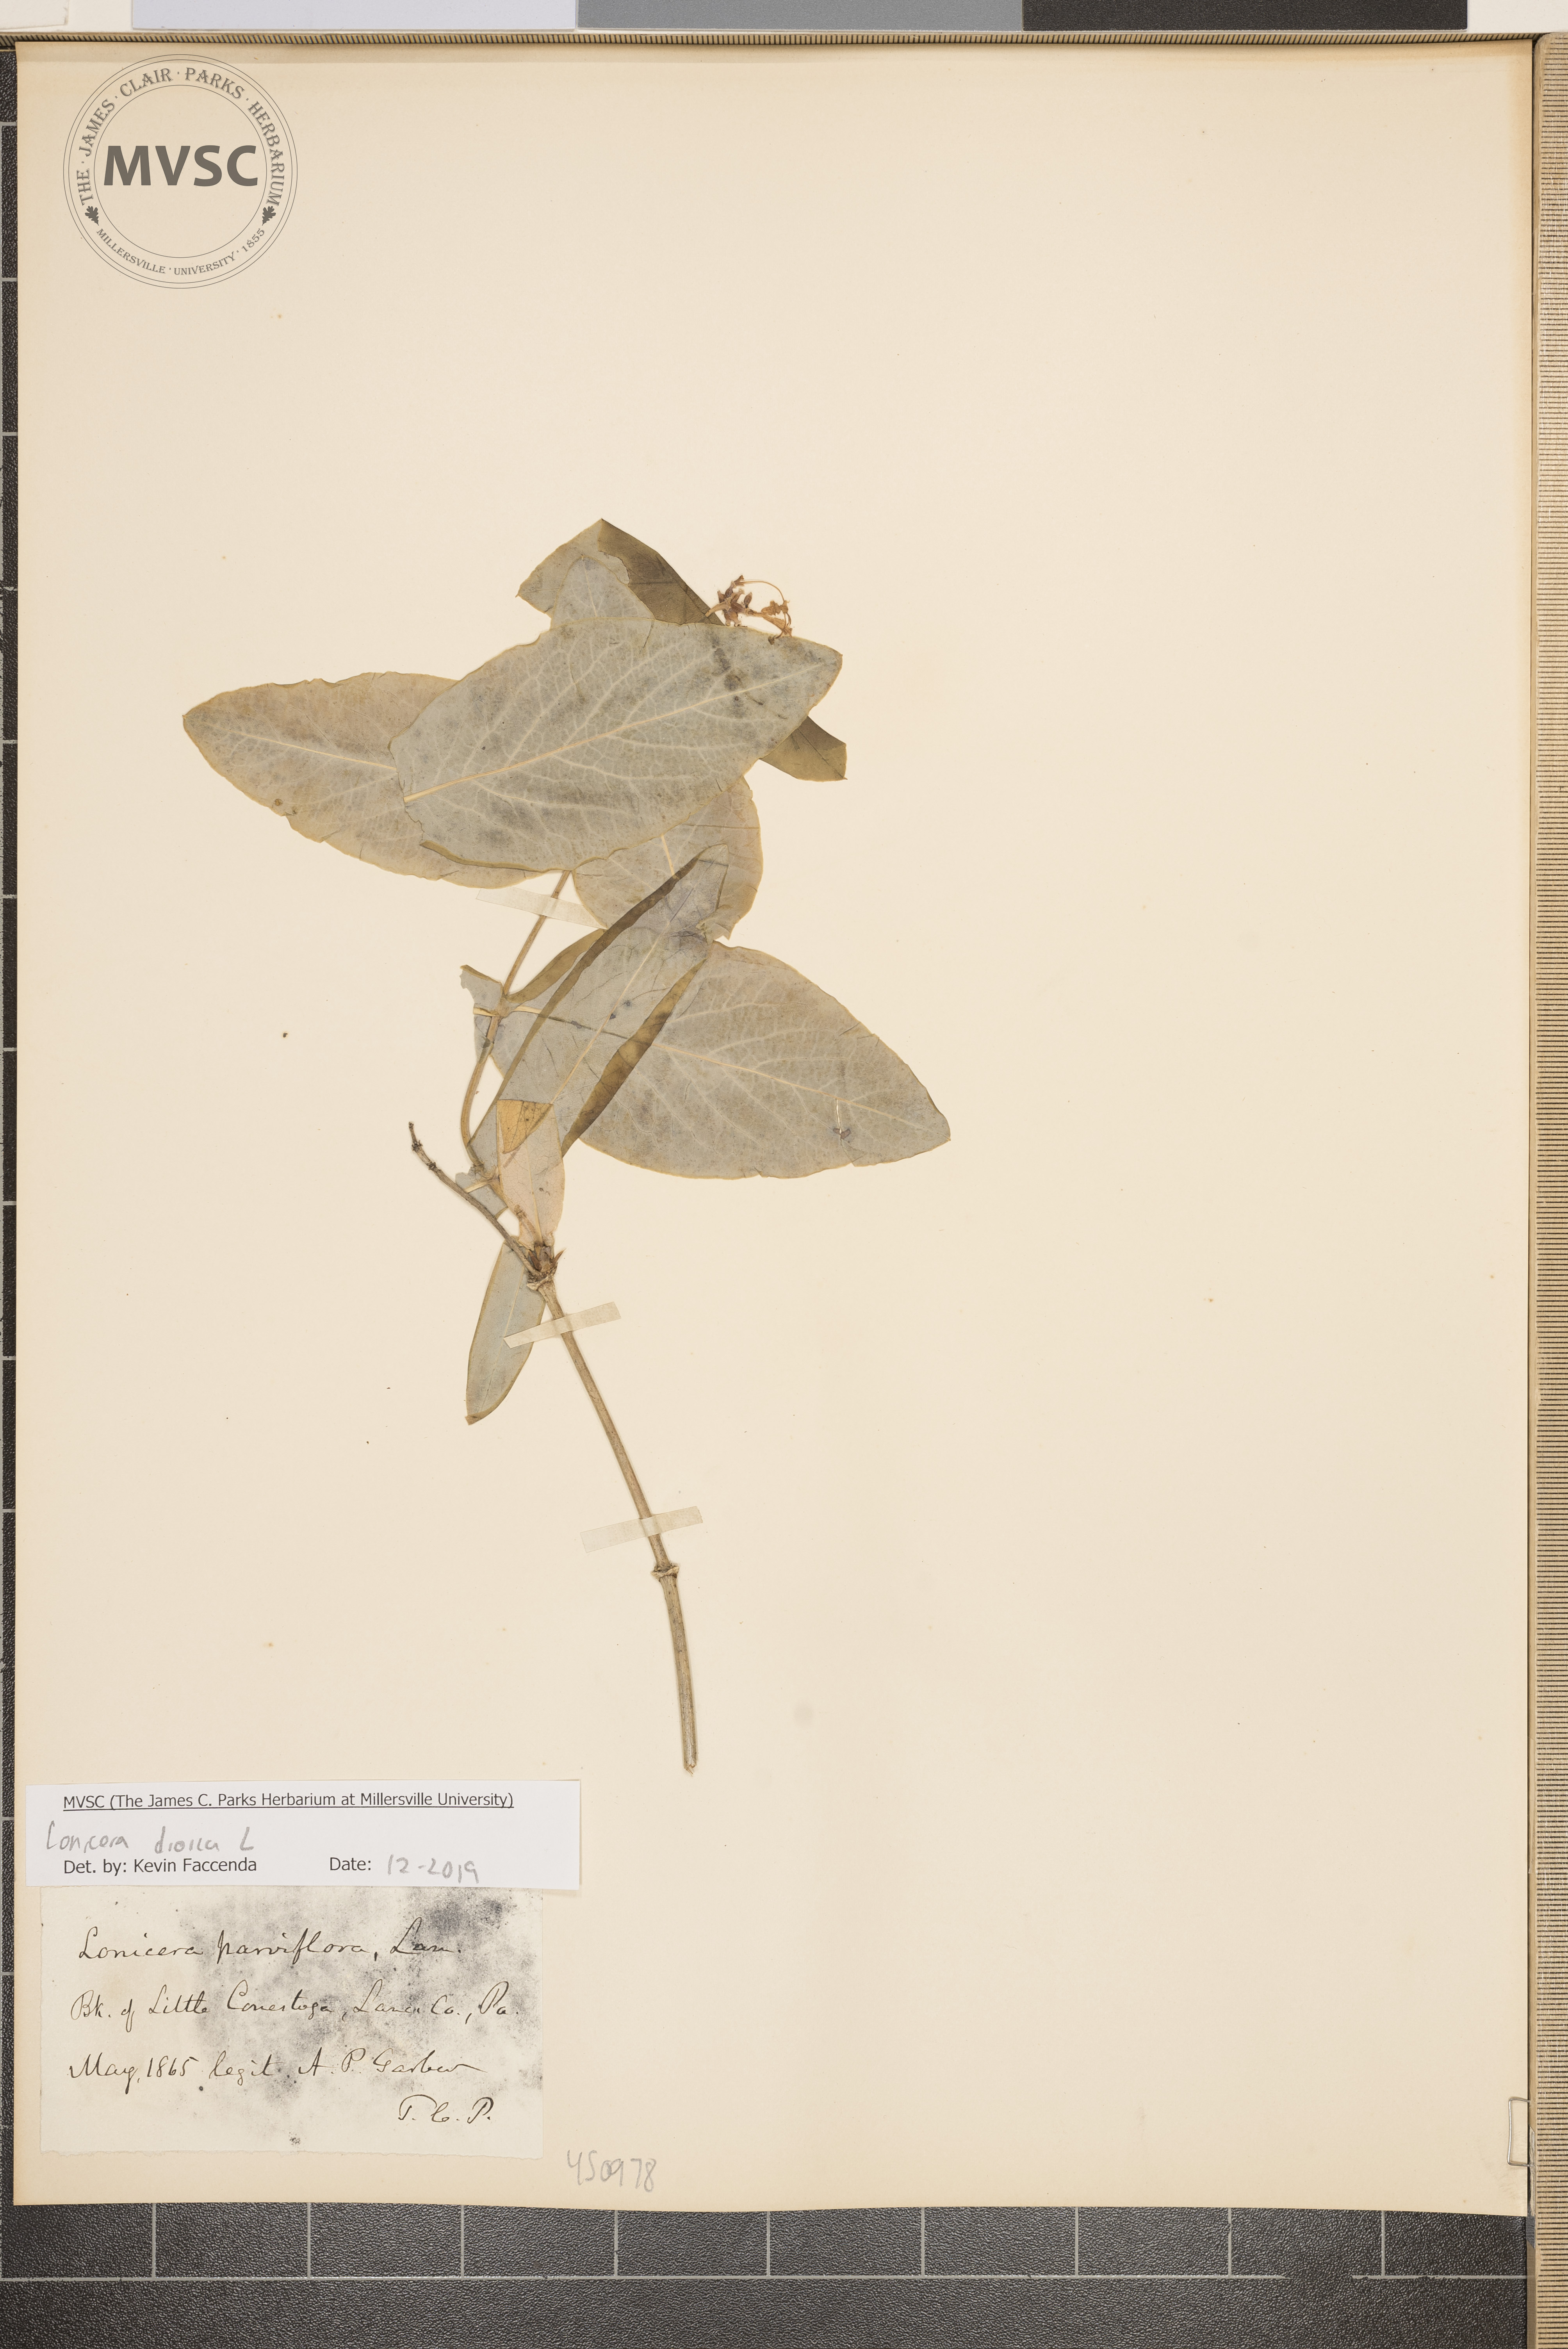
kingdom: Plantae
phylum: Tracheophyta
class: Magnoliopsida
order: Dipsacales
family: Caprifoliaceae
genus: Lonicera
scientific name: Lonicera dioica
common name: Limber honeysuckle
